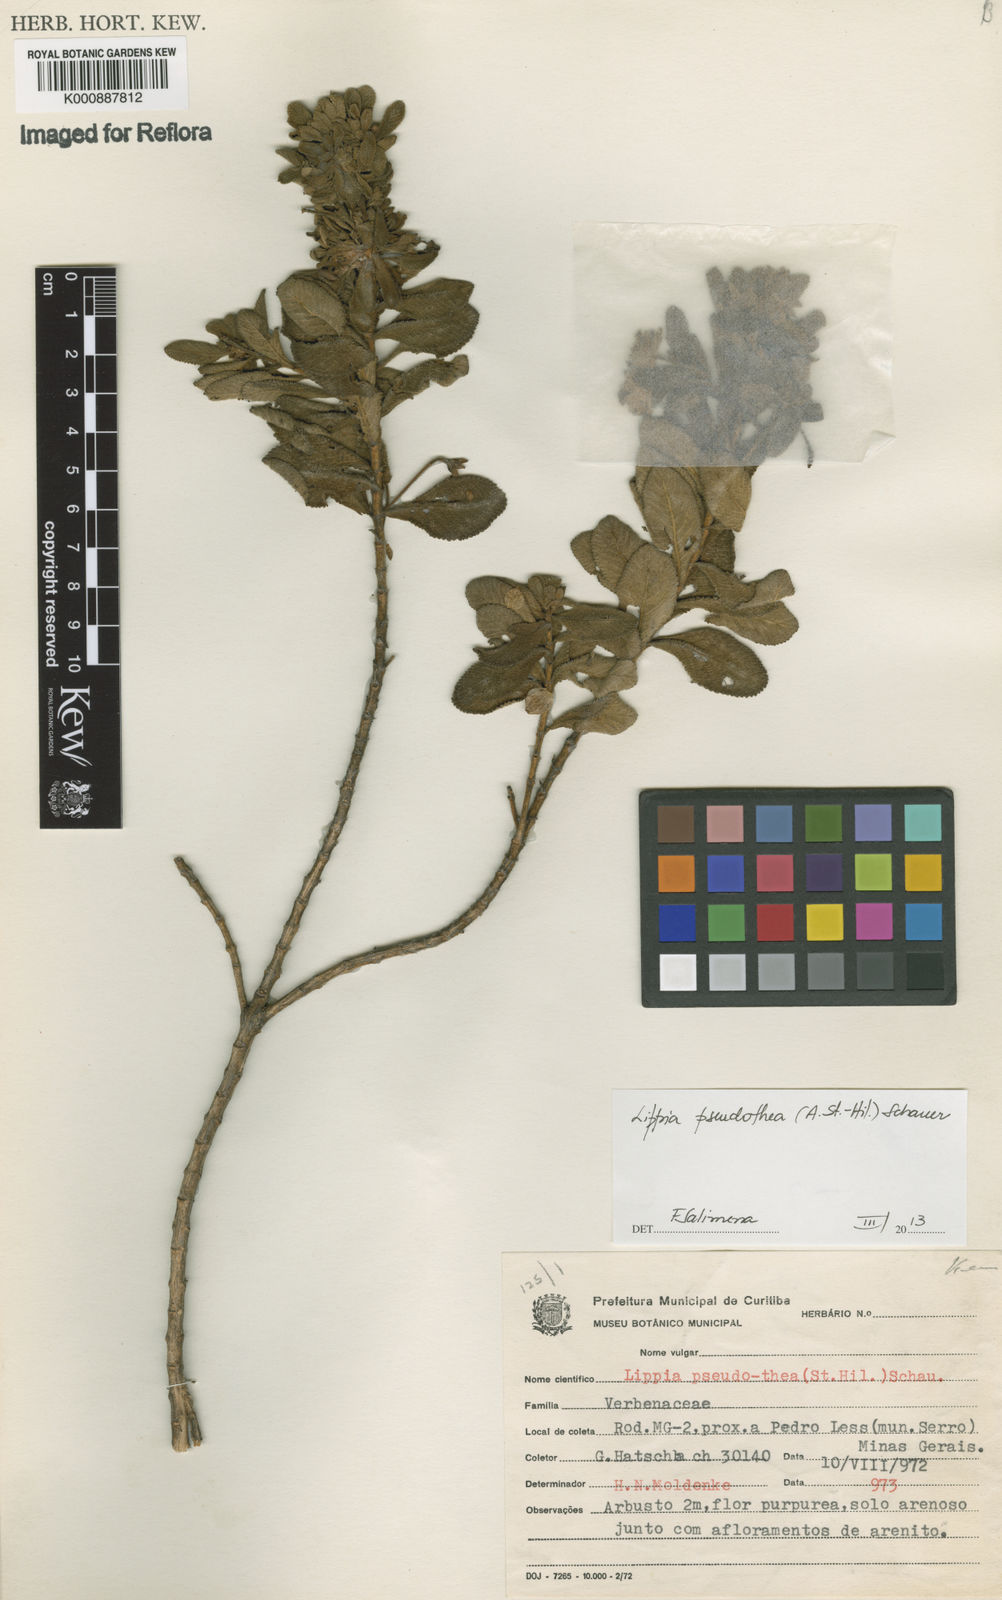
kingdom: Plantae
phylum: Tracheophyta
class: Magnoliopsida
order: Lamiales
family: Verbenaceae
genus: Lippia
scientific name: Lippia
